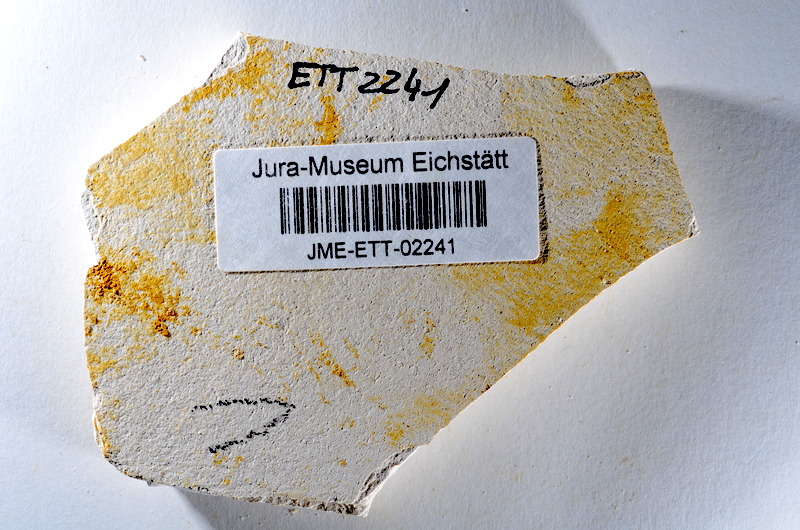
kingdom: Animalia
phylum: Chordata
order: Salmoniformes
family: Orthogonikleithridae
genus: Orthogonikleithrus
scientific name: Orthogonikleithrus hoelli
